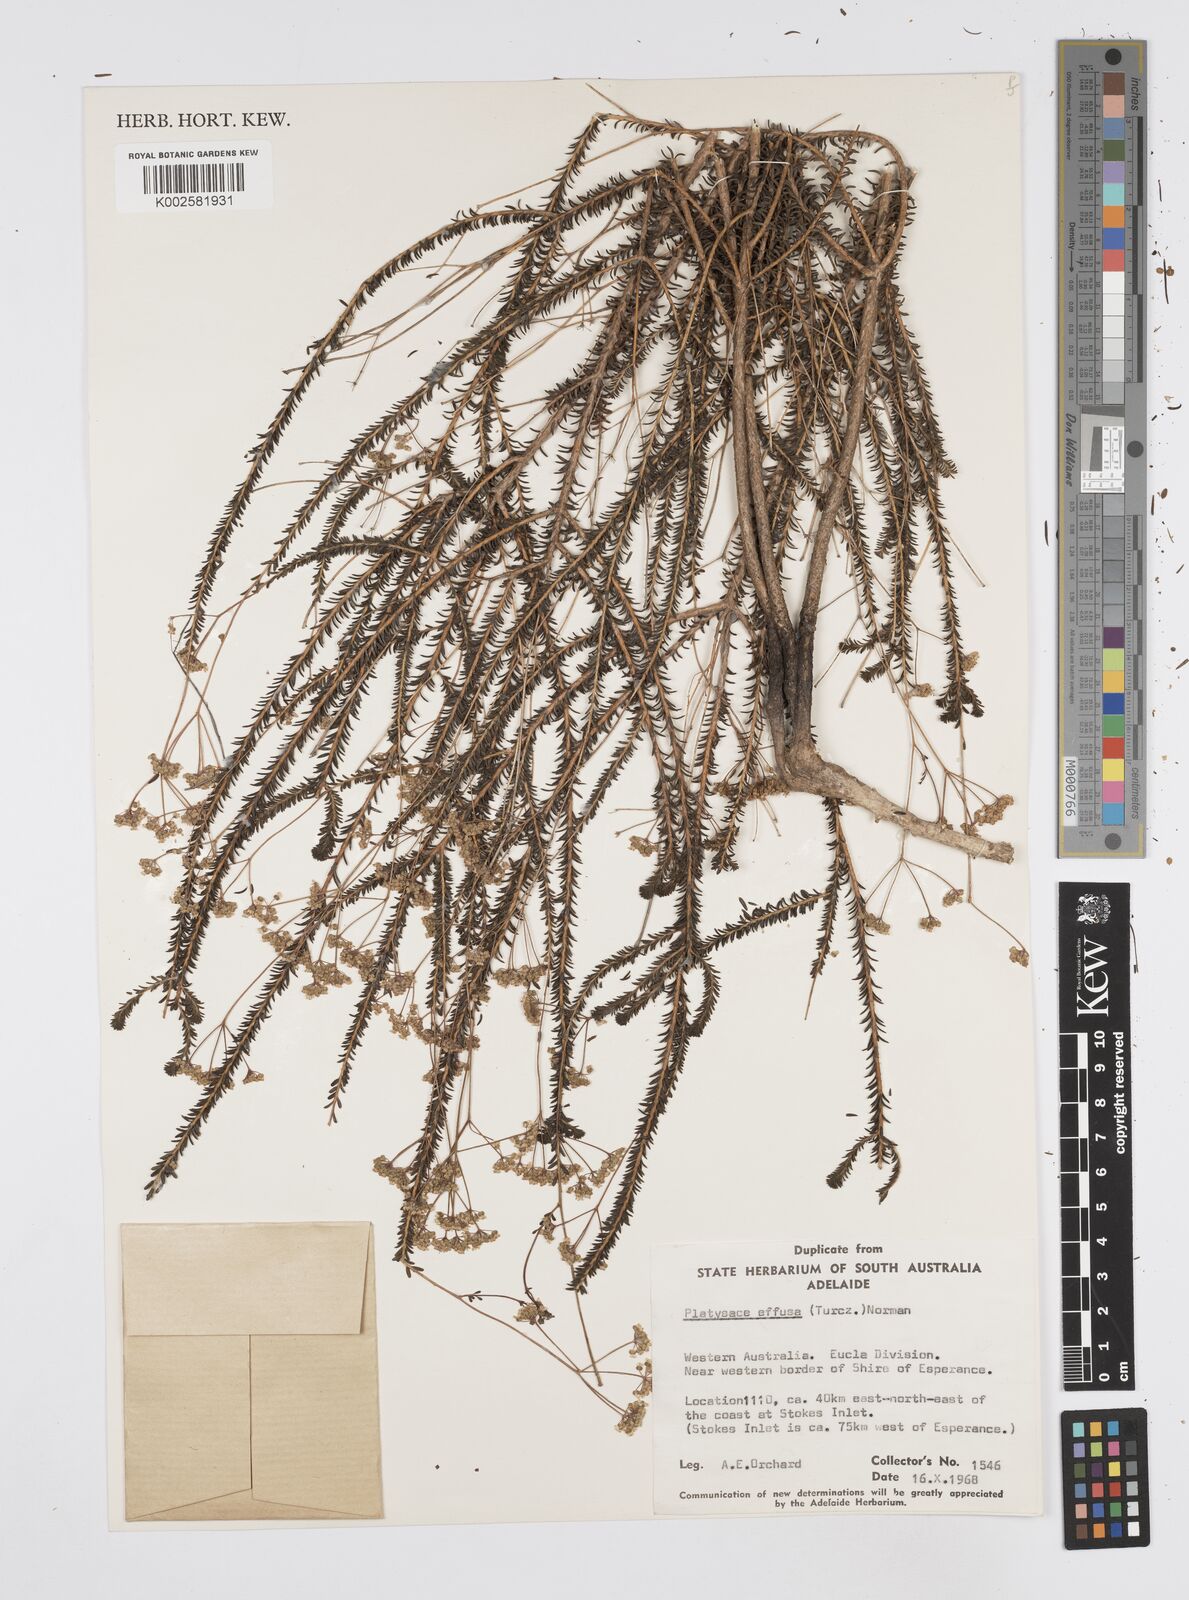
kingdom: Plantae
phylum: Tracheophyta
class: Magnoliopsida
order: Apiales
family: Apiaceae
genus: Platysace
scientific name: Platysace effusa
